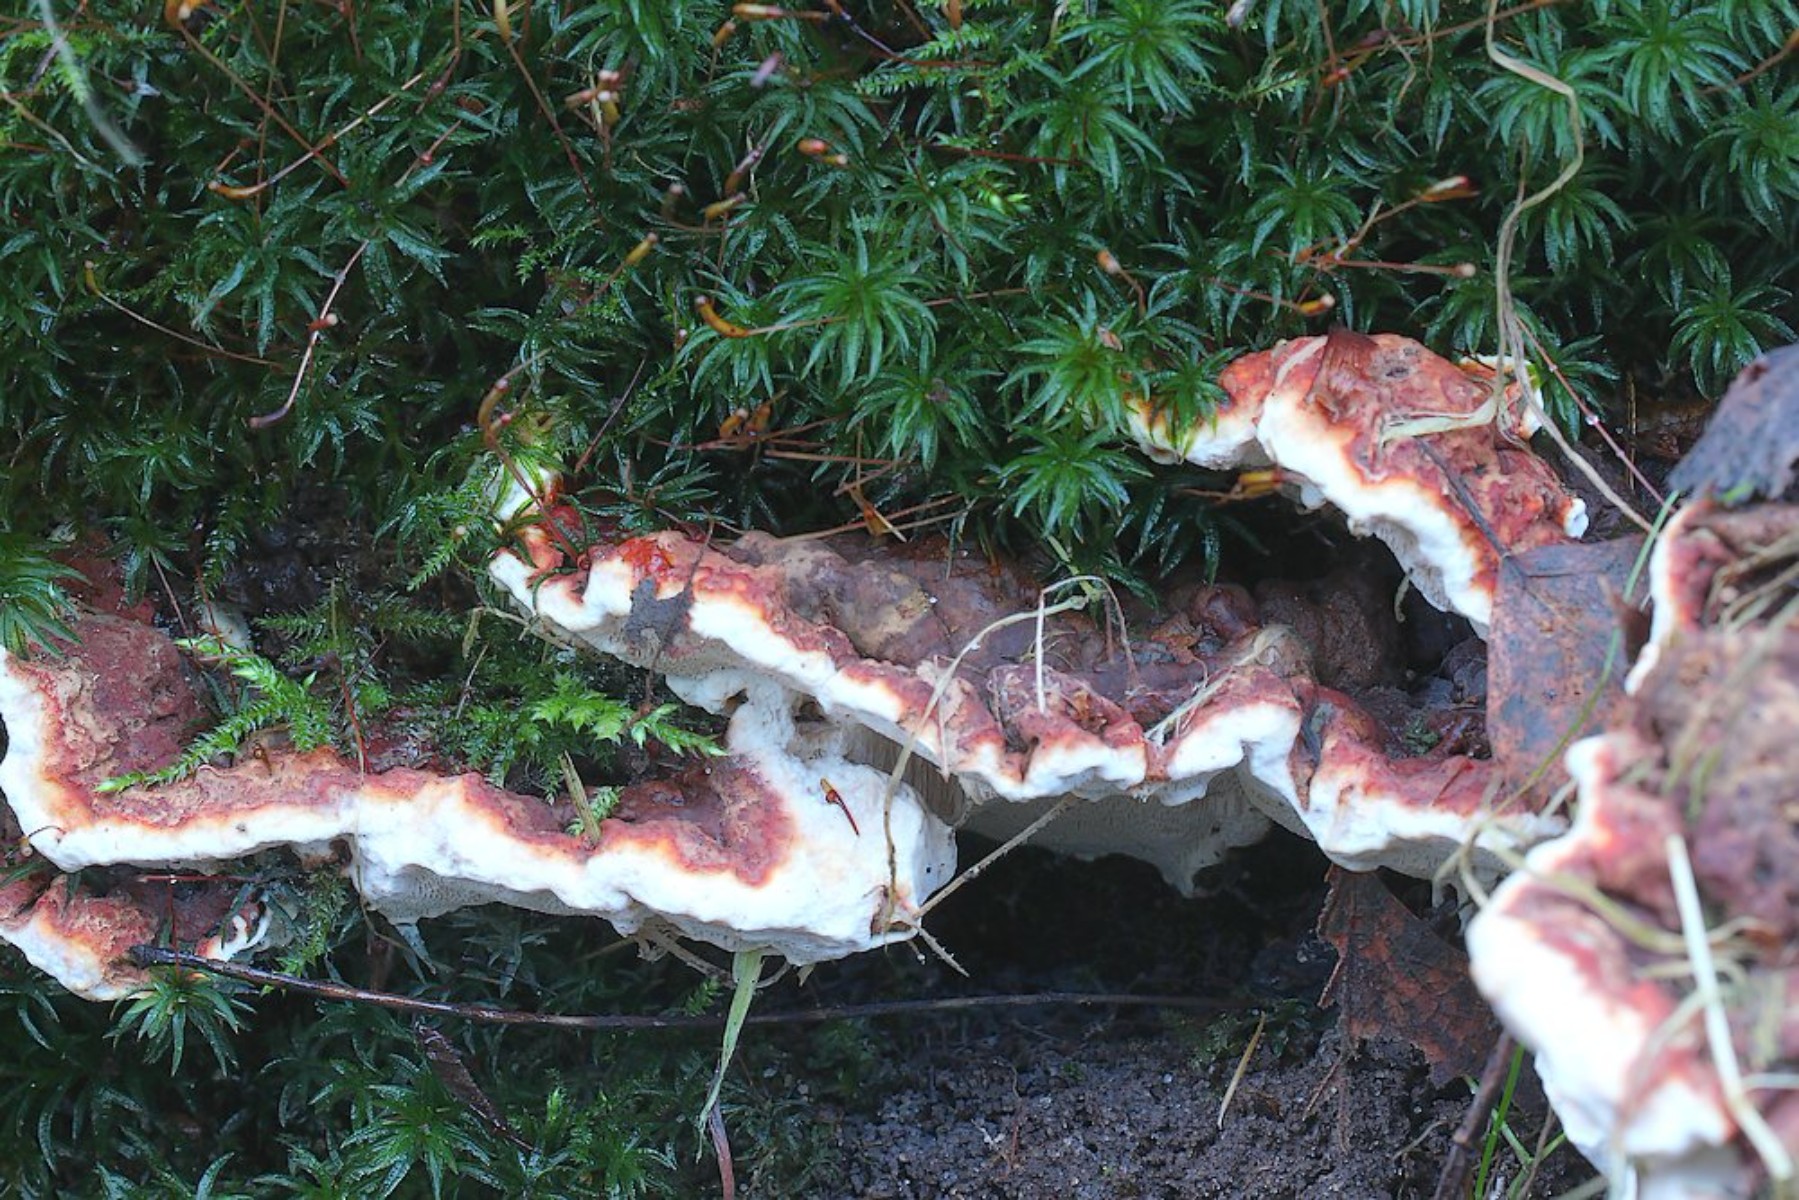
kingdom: Fungi
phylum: Basidiomycota
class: Agaricomycetes
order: Russulales
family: Bondarzewiaceae
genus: Heterobasidion
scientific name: Heterobasidion annosum
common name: almindelig rodfordærver
